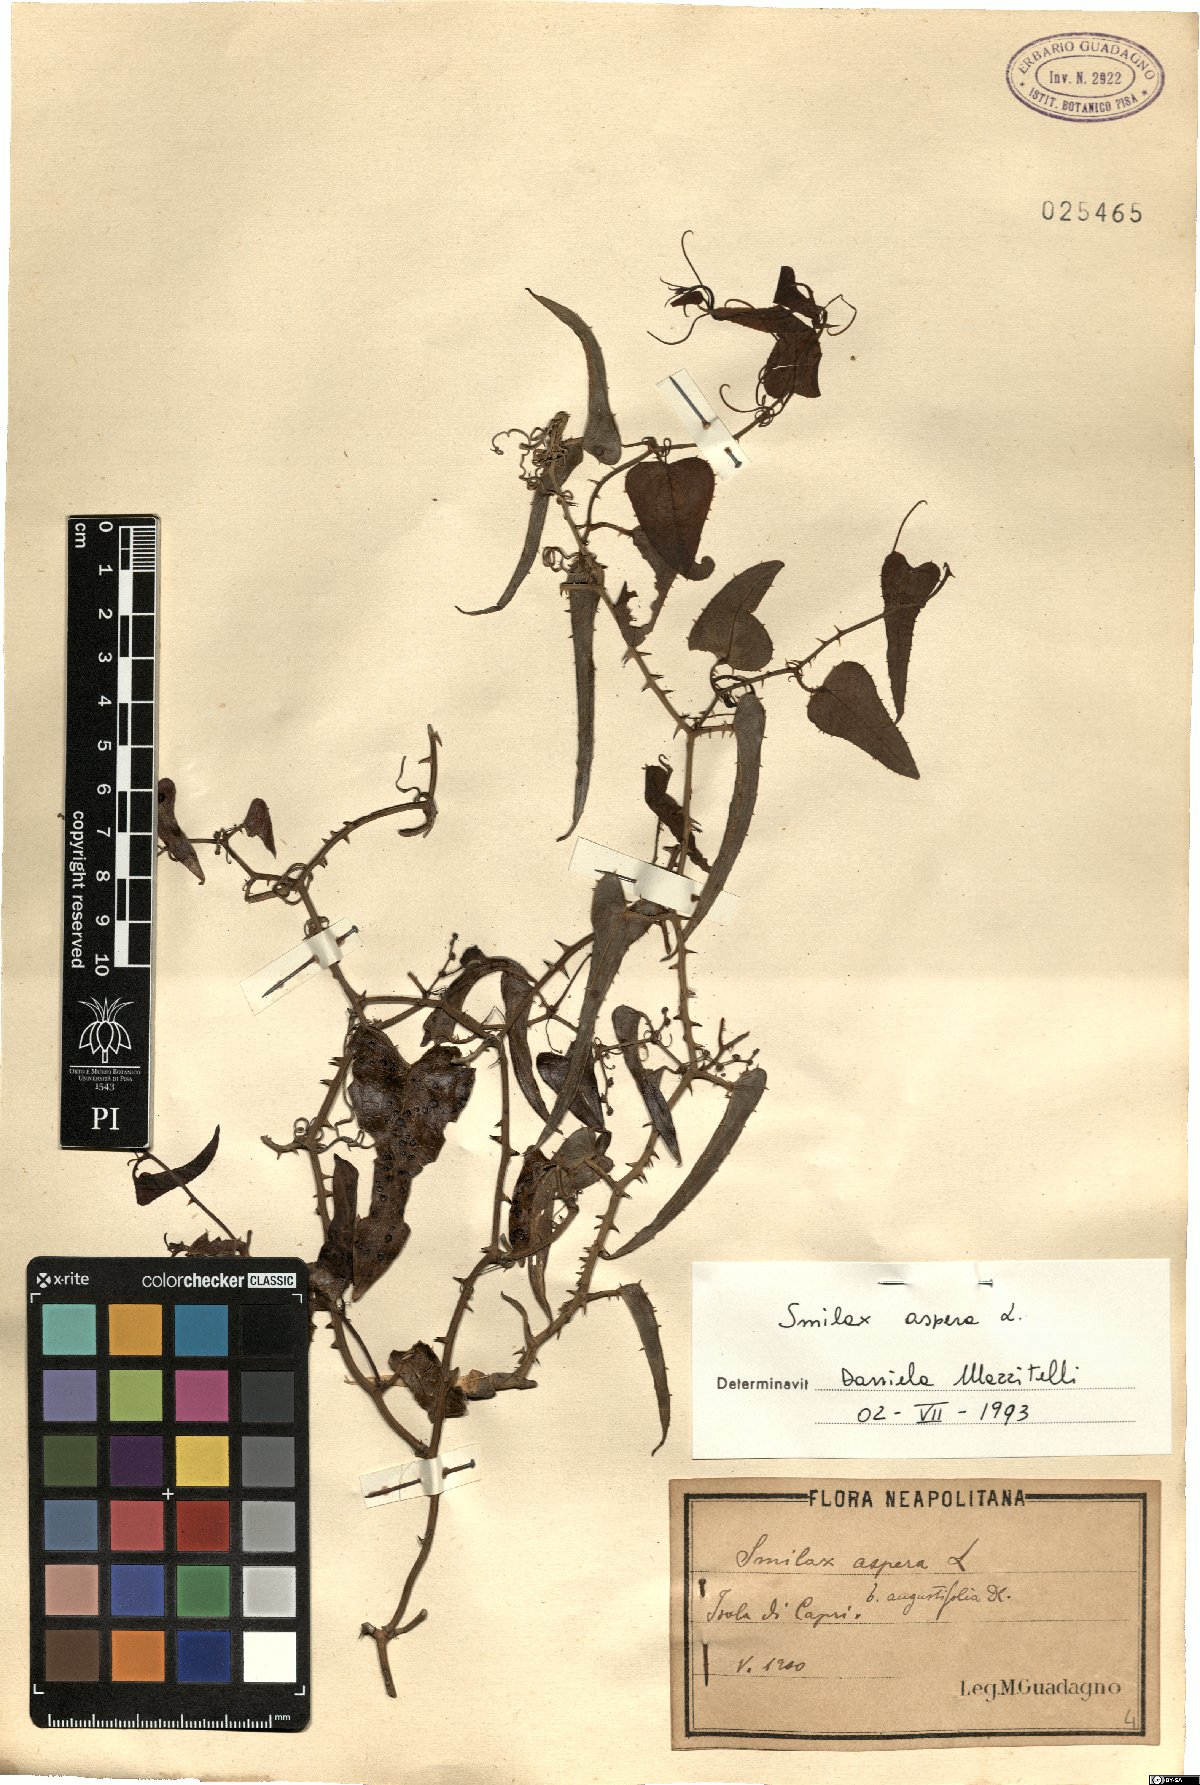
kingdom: Plantae
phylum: Tracheophyta
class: Liliopsida
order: Liliales
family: Smilacaceae
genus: Smilax
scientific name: Smilax aspera
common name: Common smilax
